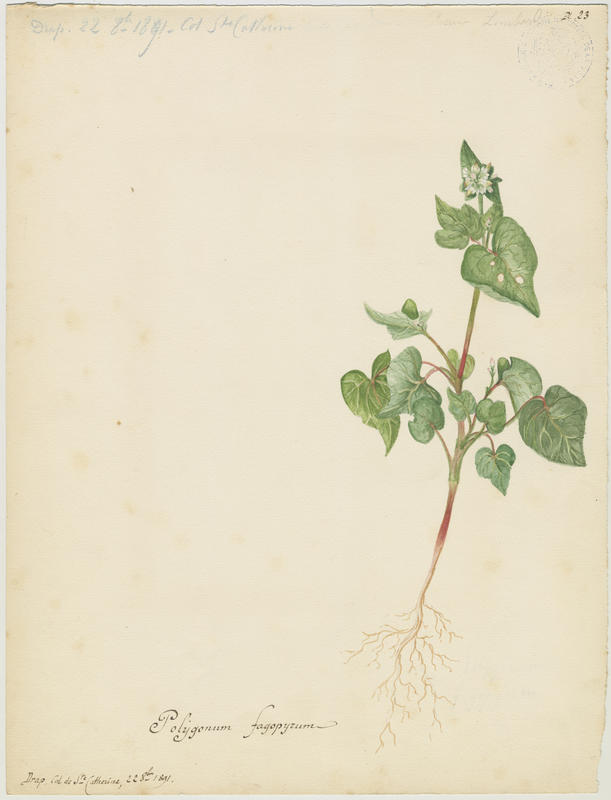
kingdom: Plantae
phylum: Tracheophyta
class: Magnoliopsida
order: Caryophyllales
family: Polygonaceae
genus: Fagopyrum
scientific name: Fagopyrum esculentum
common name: Buckwheat
